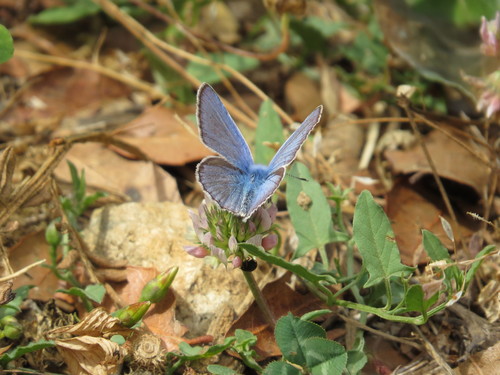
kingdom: Animalia
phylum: Arthropoda
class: Insecta
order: Lepidoptera
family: Lycaenidae
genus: Polyommatus
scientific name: Polyommatus icarus
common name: Common blue
